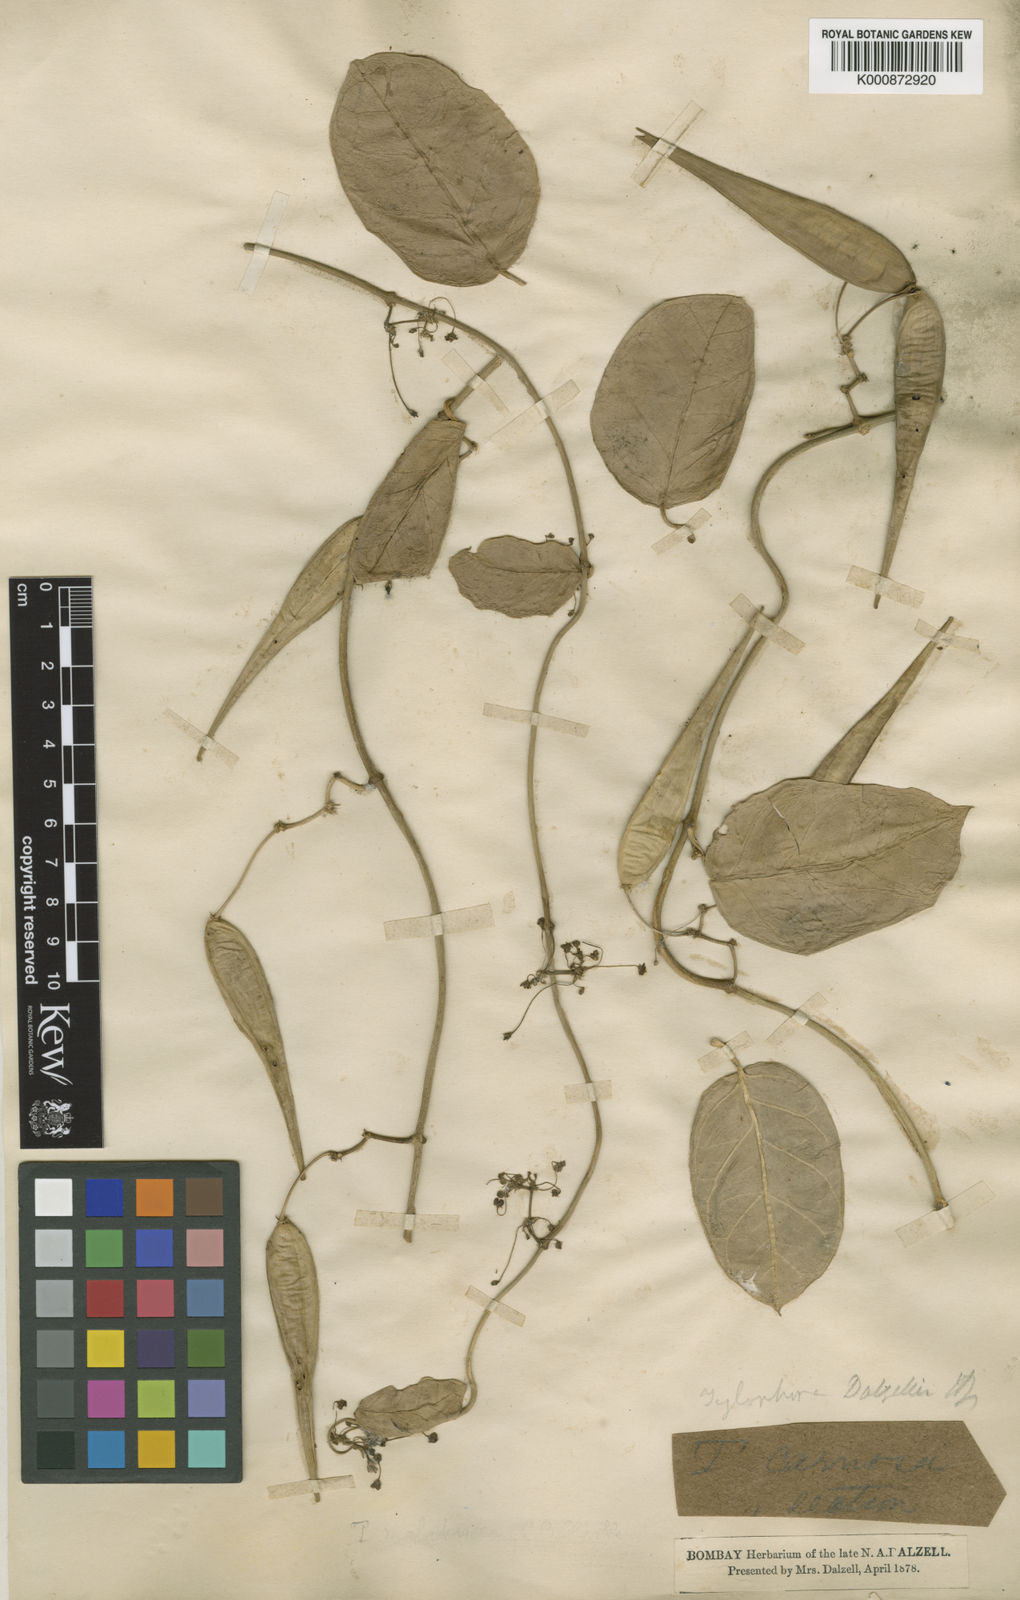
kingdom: Plantae
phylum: Tracheophyta
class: Magnoliopsida
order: Gentianales
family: Apocynaceae
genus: Vincetoxicum
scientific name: Vincetoxicum dalzellii
